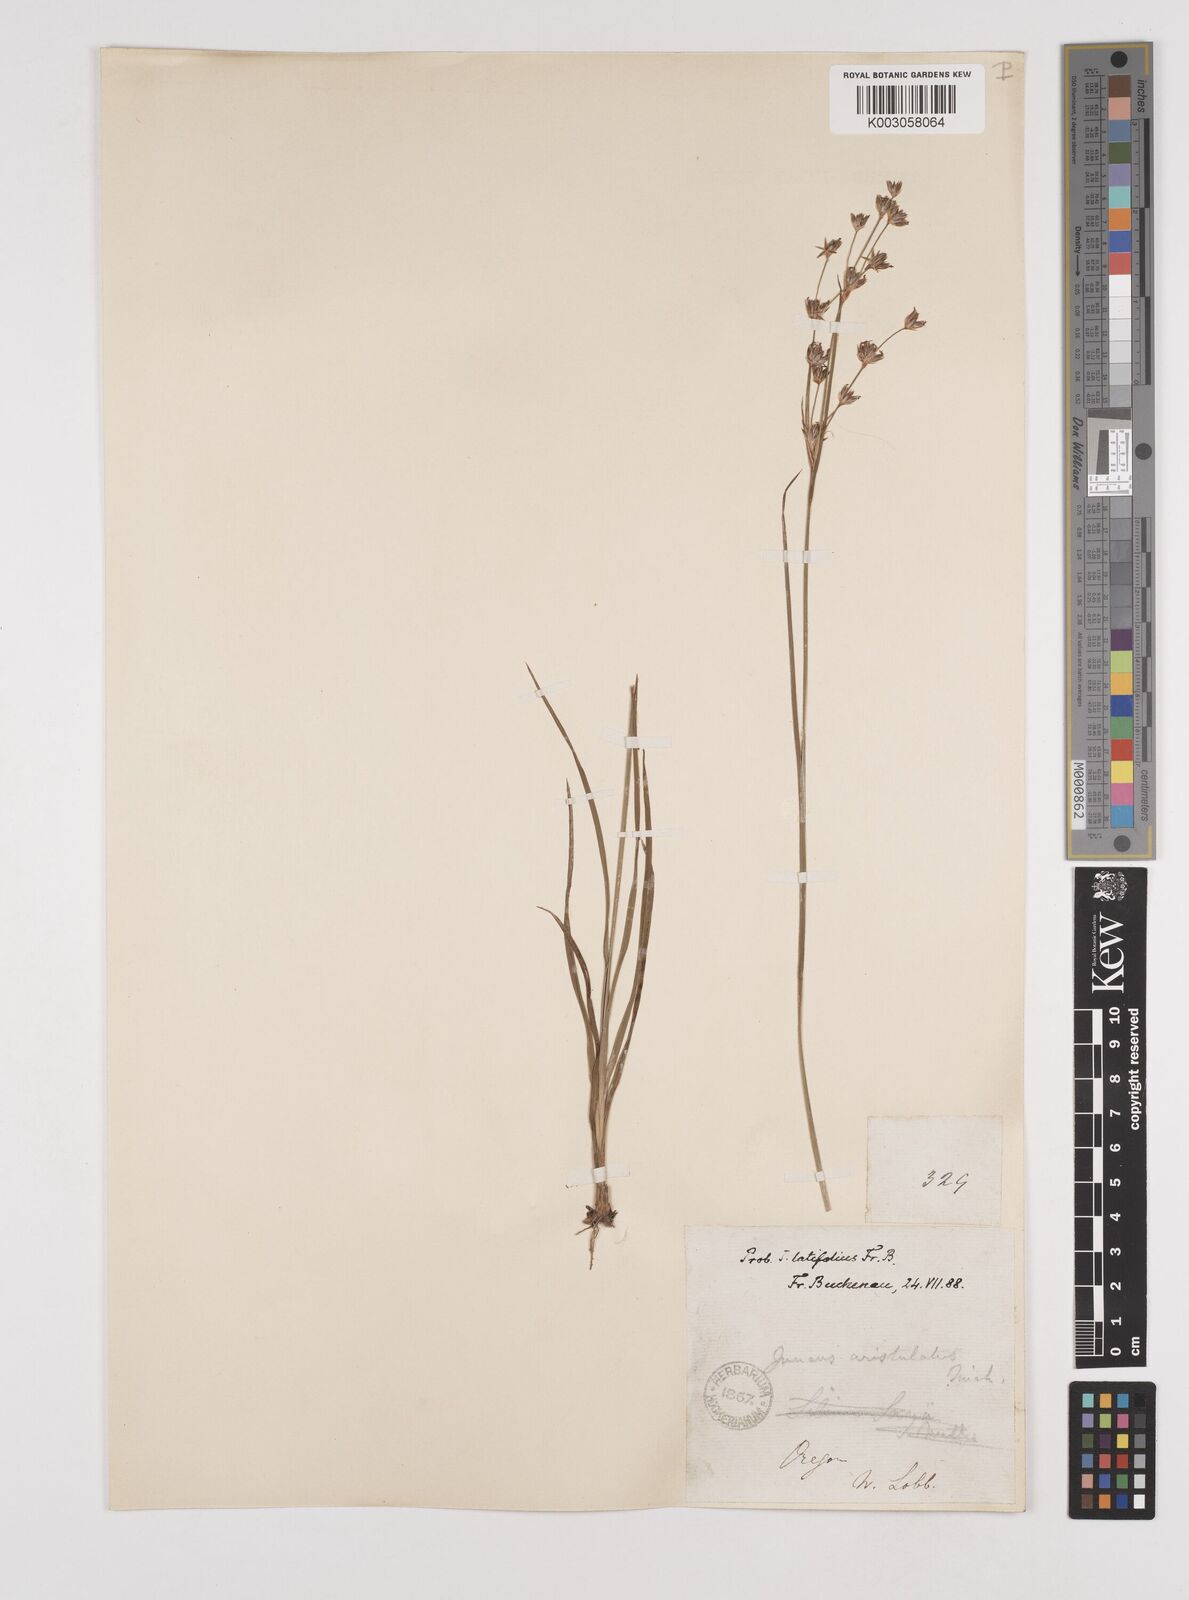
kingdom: Plantae
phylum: Tracheophyta
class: Liliopsida
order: Poales
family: Juncaceae
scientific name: Juncaceae
